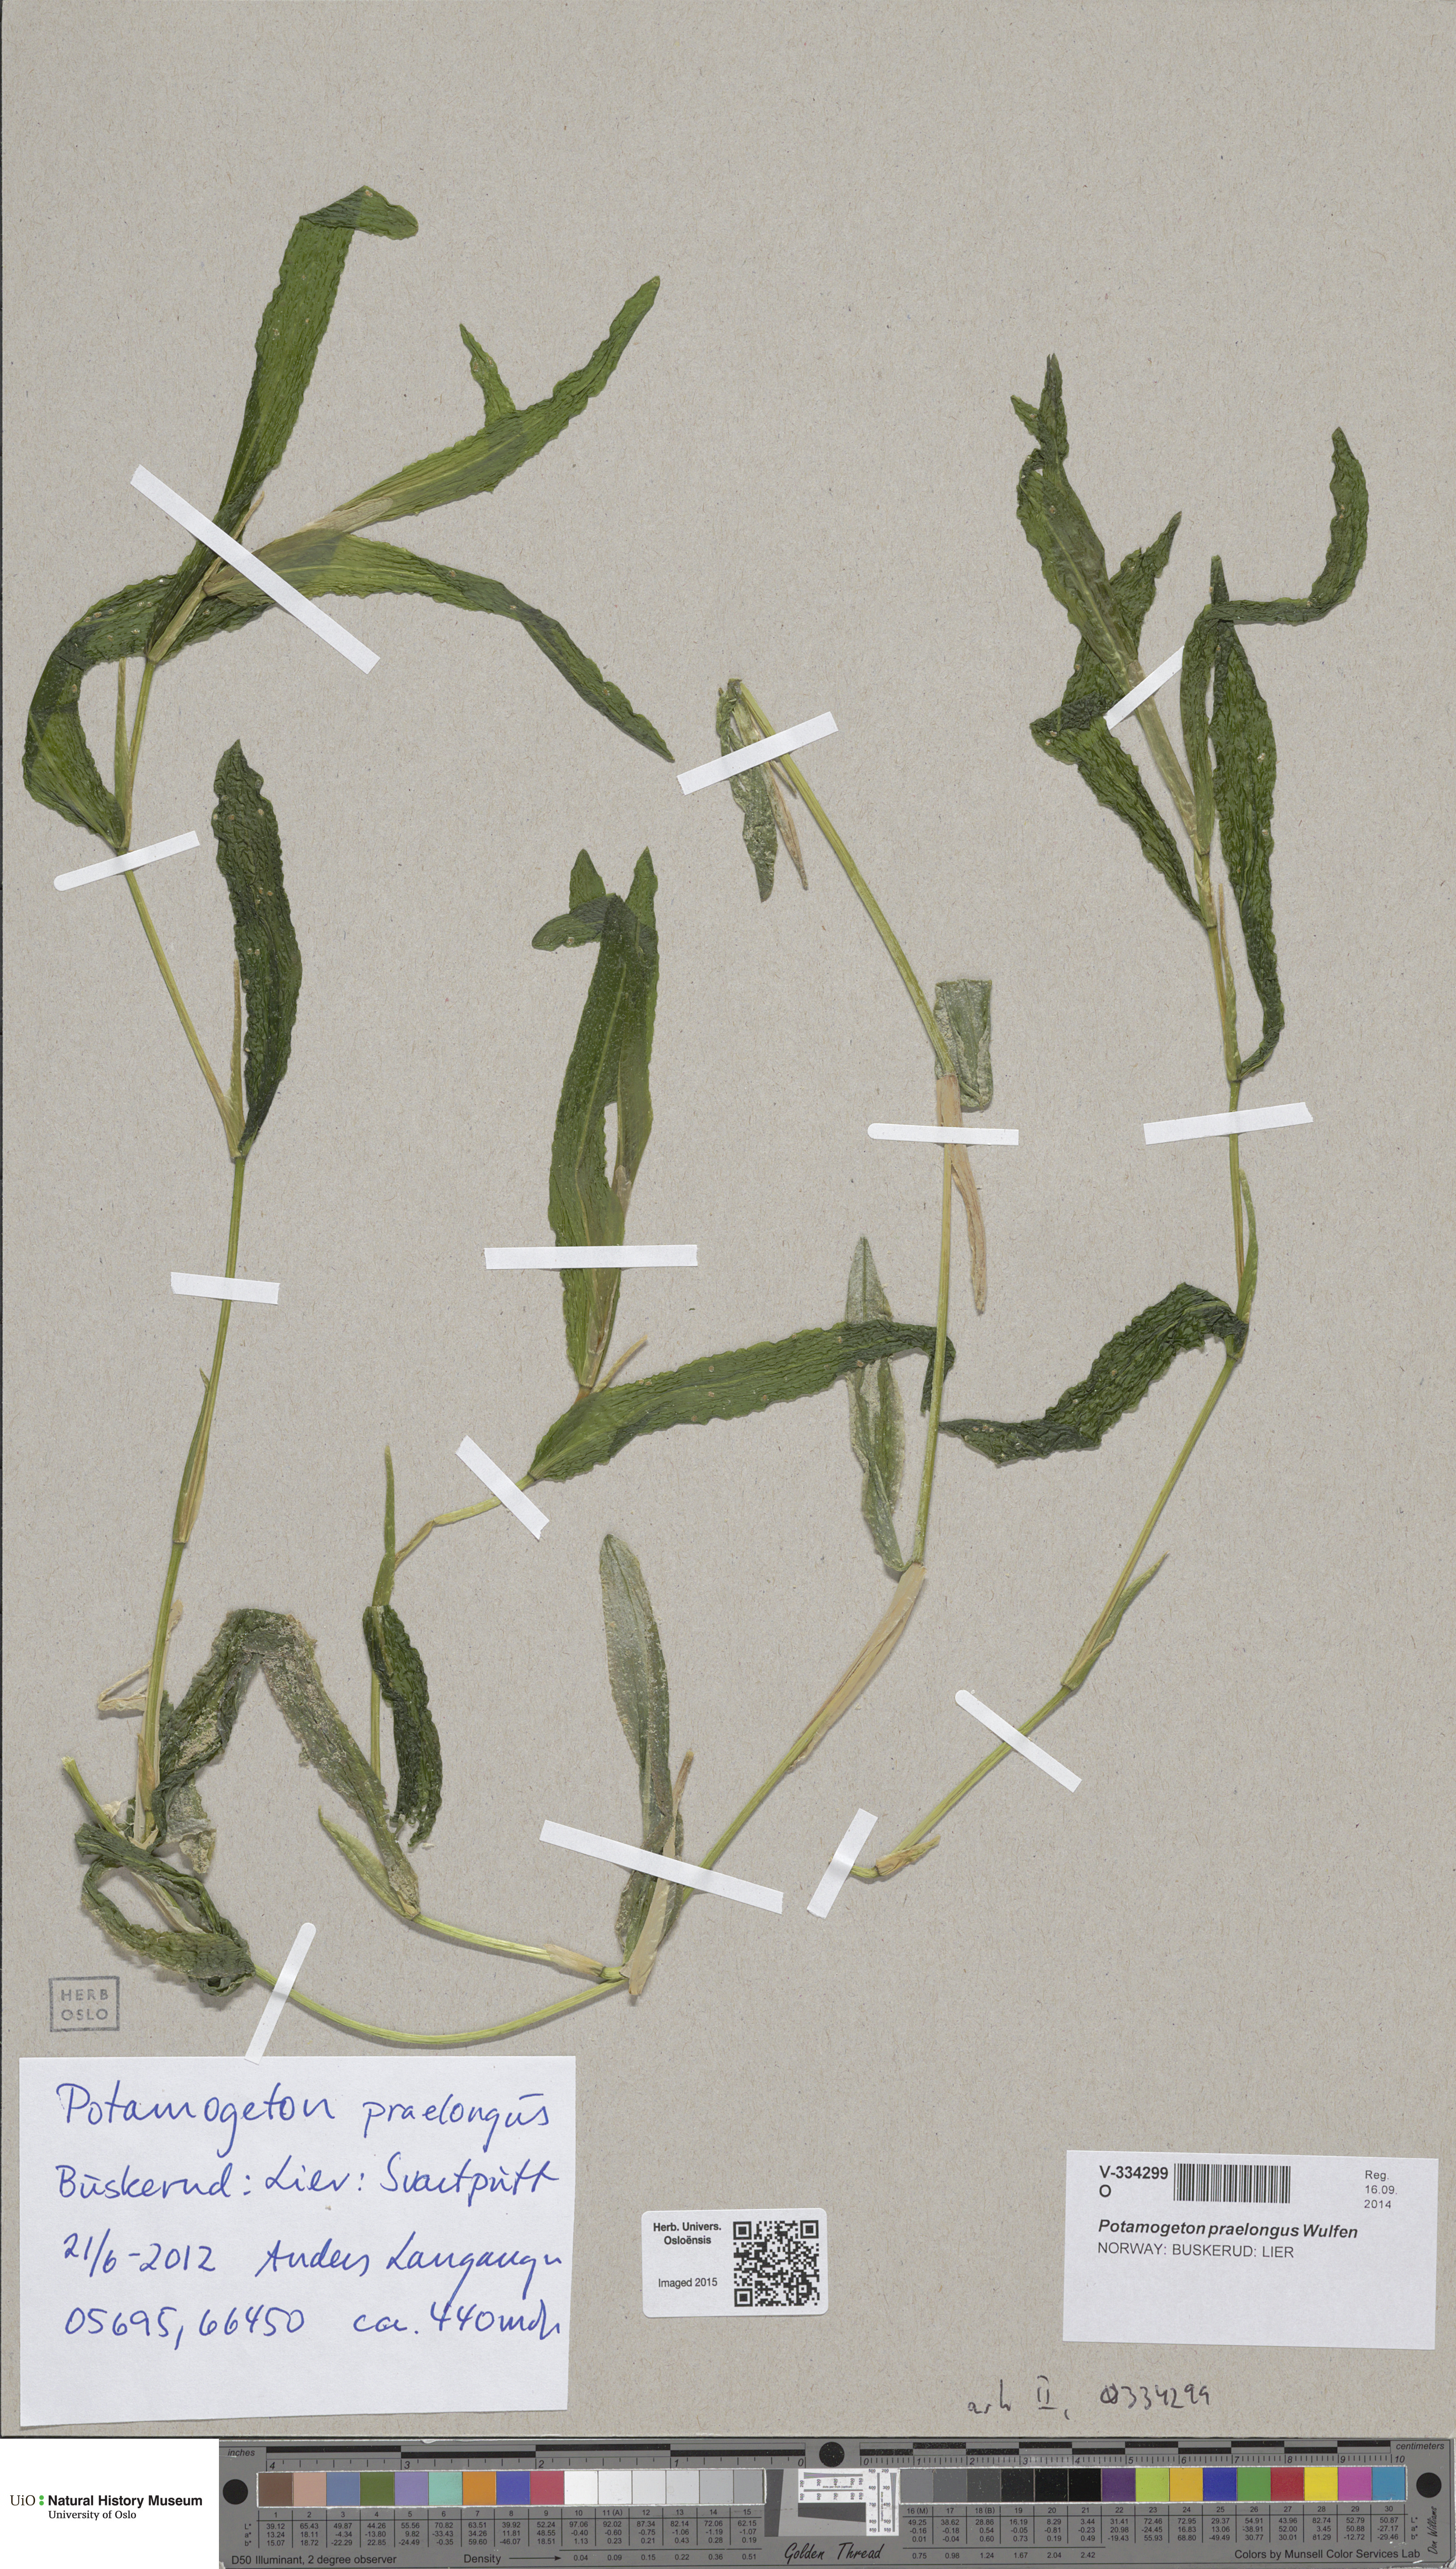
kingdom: Plantae
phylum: Tracheophyta
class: Liliopsida
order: Alismatales
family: Potamogetonaceae
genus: Potamogeton
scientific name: Potamogeton praelongus
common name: Long-stalked pondweed
